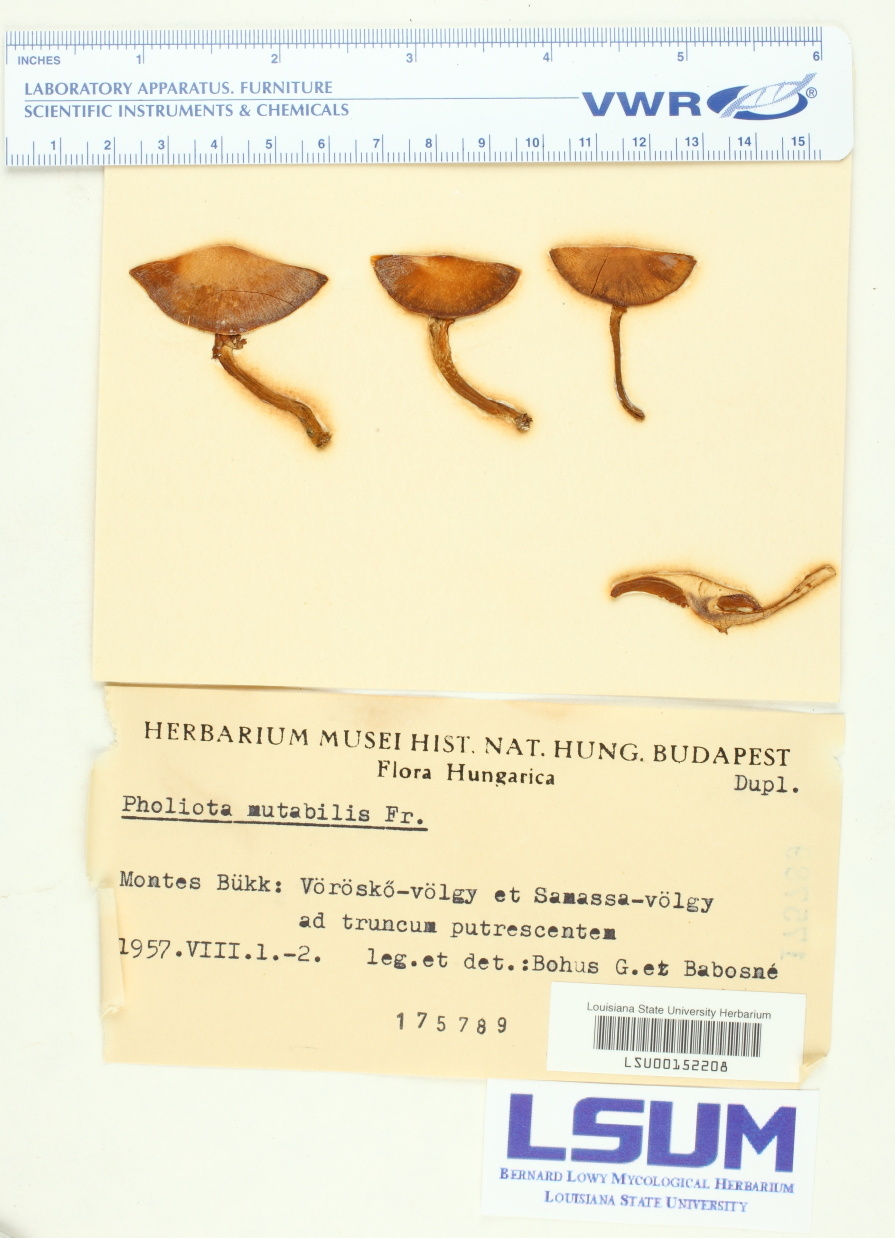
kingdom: Fungi
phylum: Basidiomycota
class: Agaricomycetes
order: Agaricales
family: Strophariaceae
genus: Kuehneromyces
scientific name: Kuehneromyces mutabilis
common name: Sheathed woodtuft
